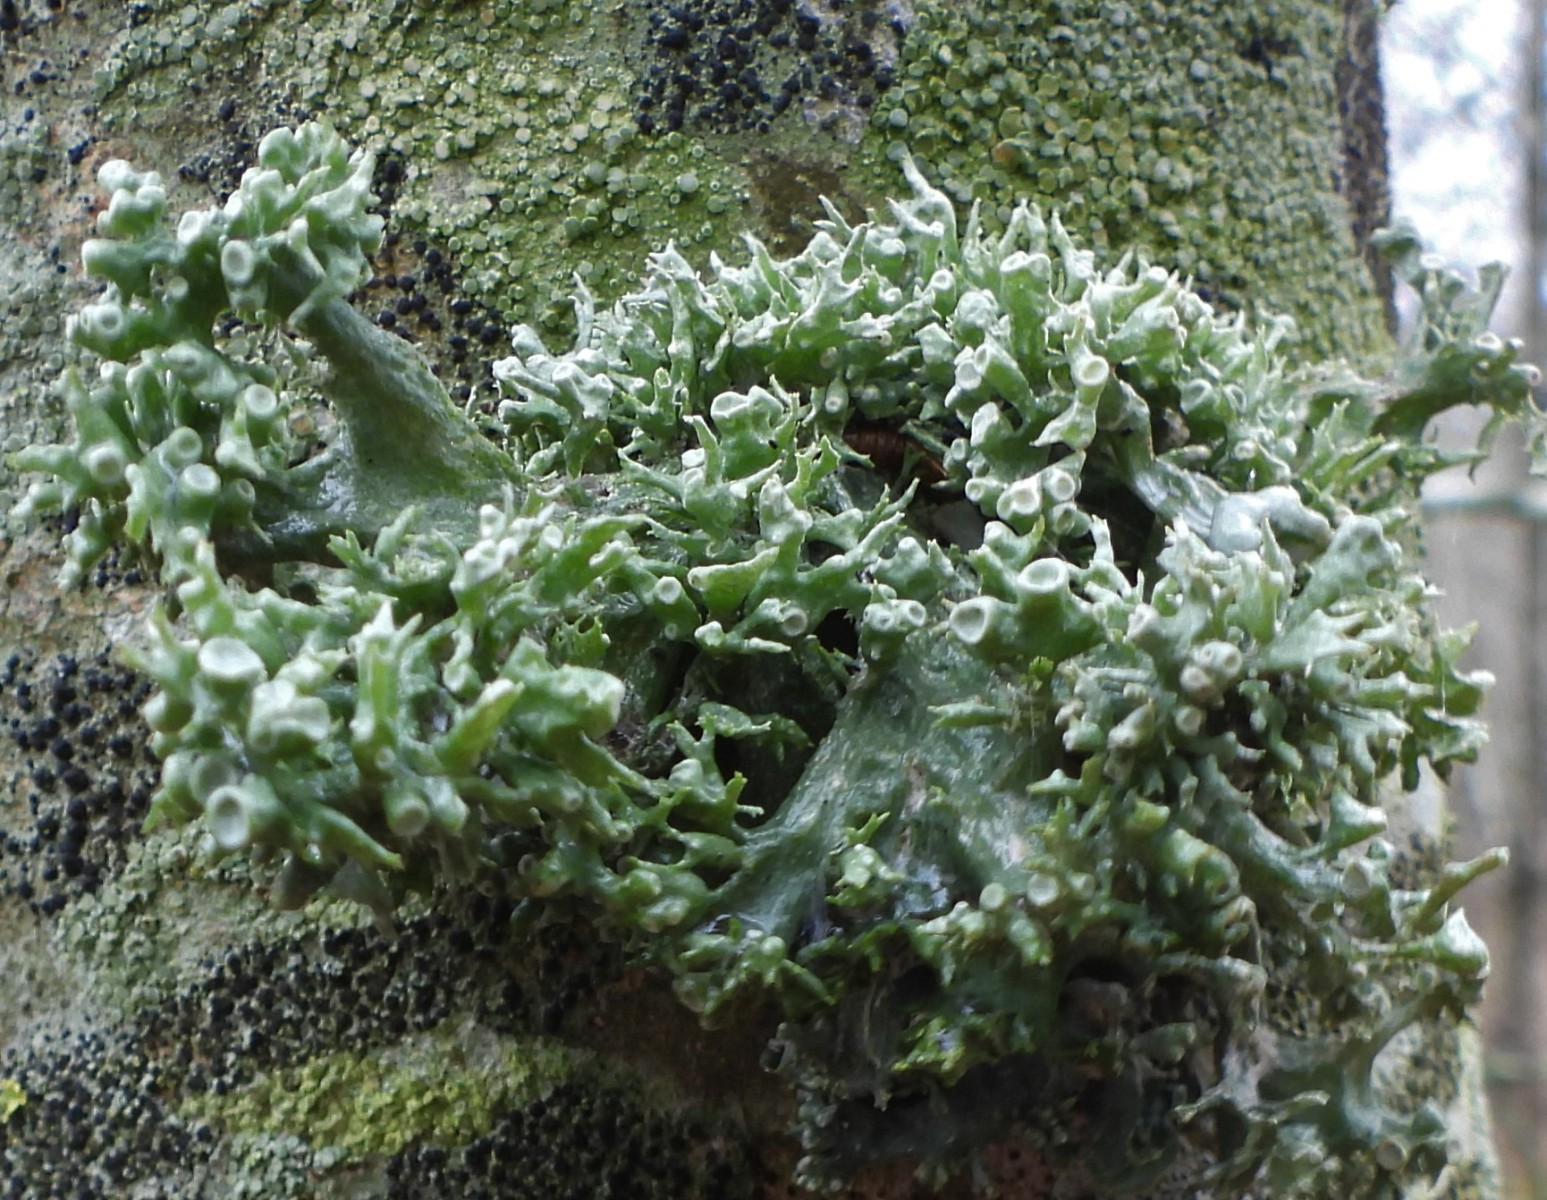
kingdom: Fungi
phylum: Ascomycota
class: Lecanoromycetes
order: Lecanorales
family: Ramalinaceae
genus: Ramalina
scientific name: Ramalina fastigiata
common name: tue-grenlav
